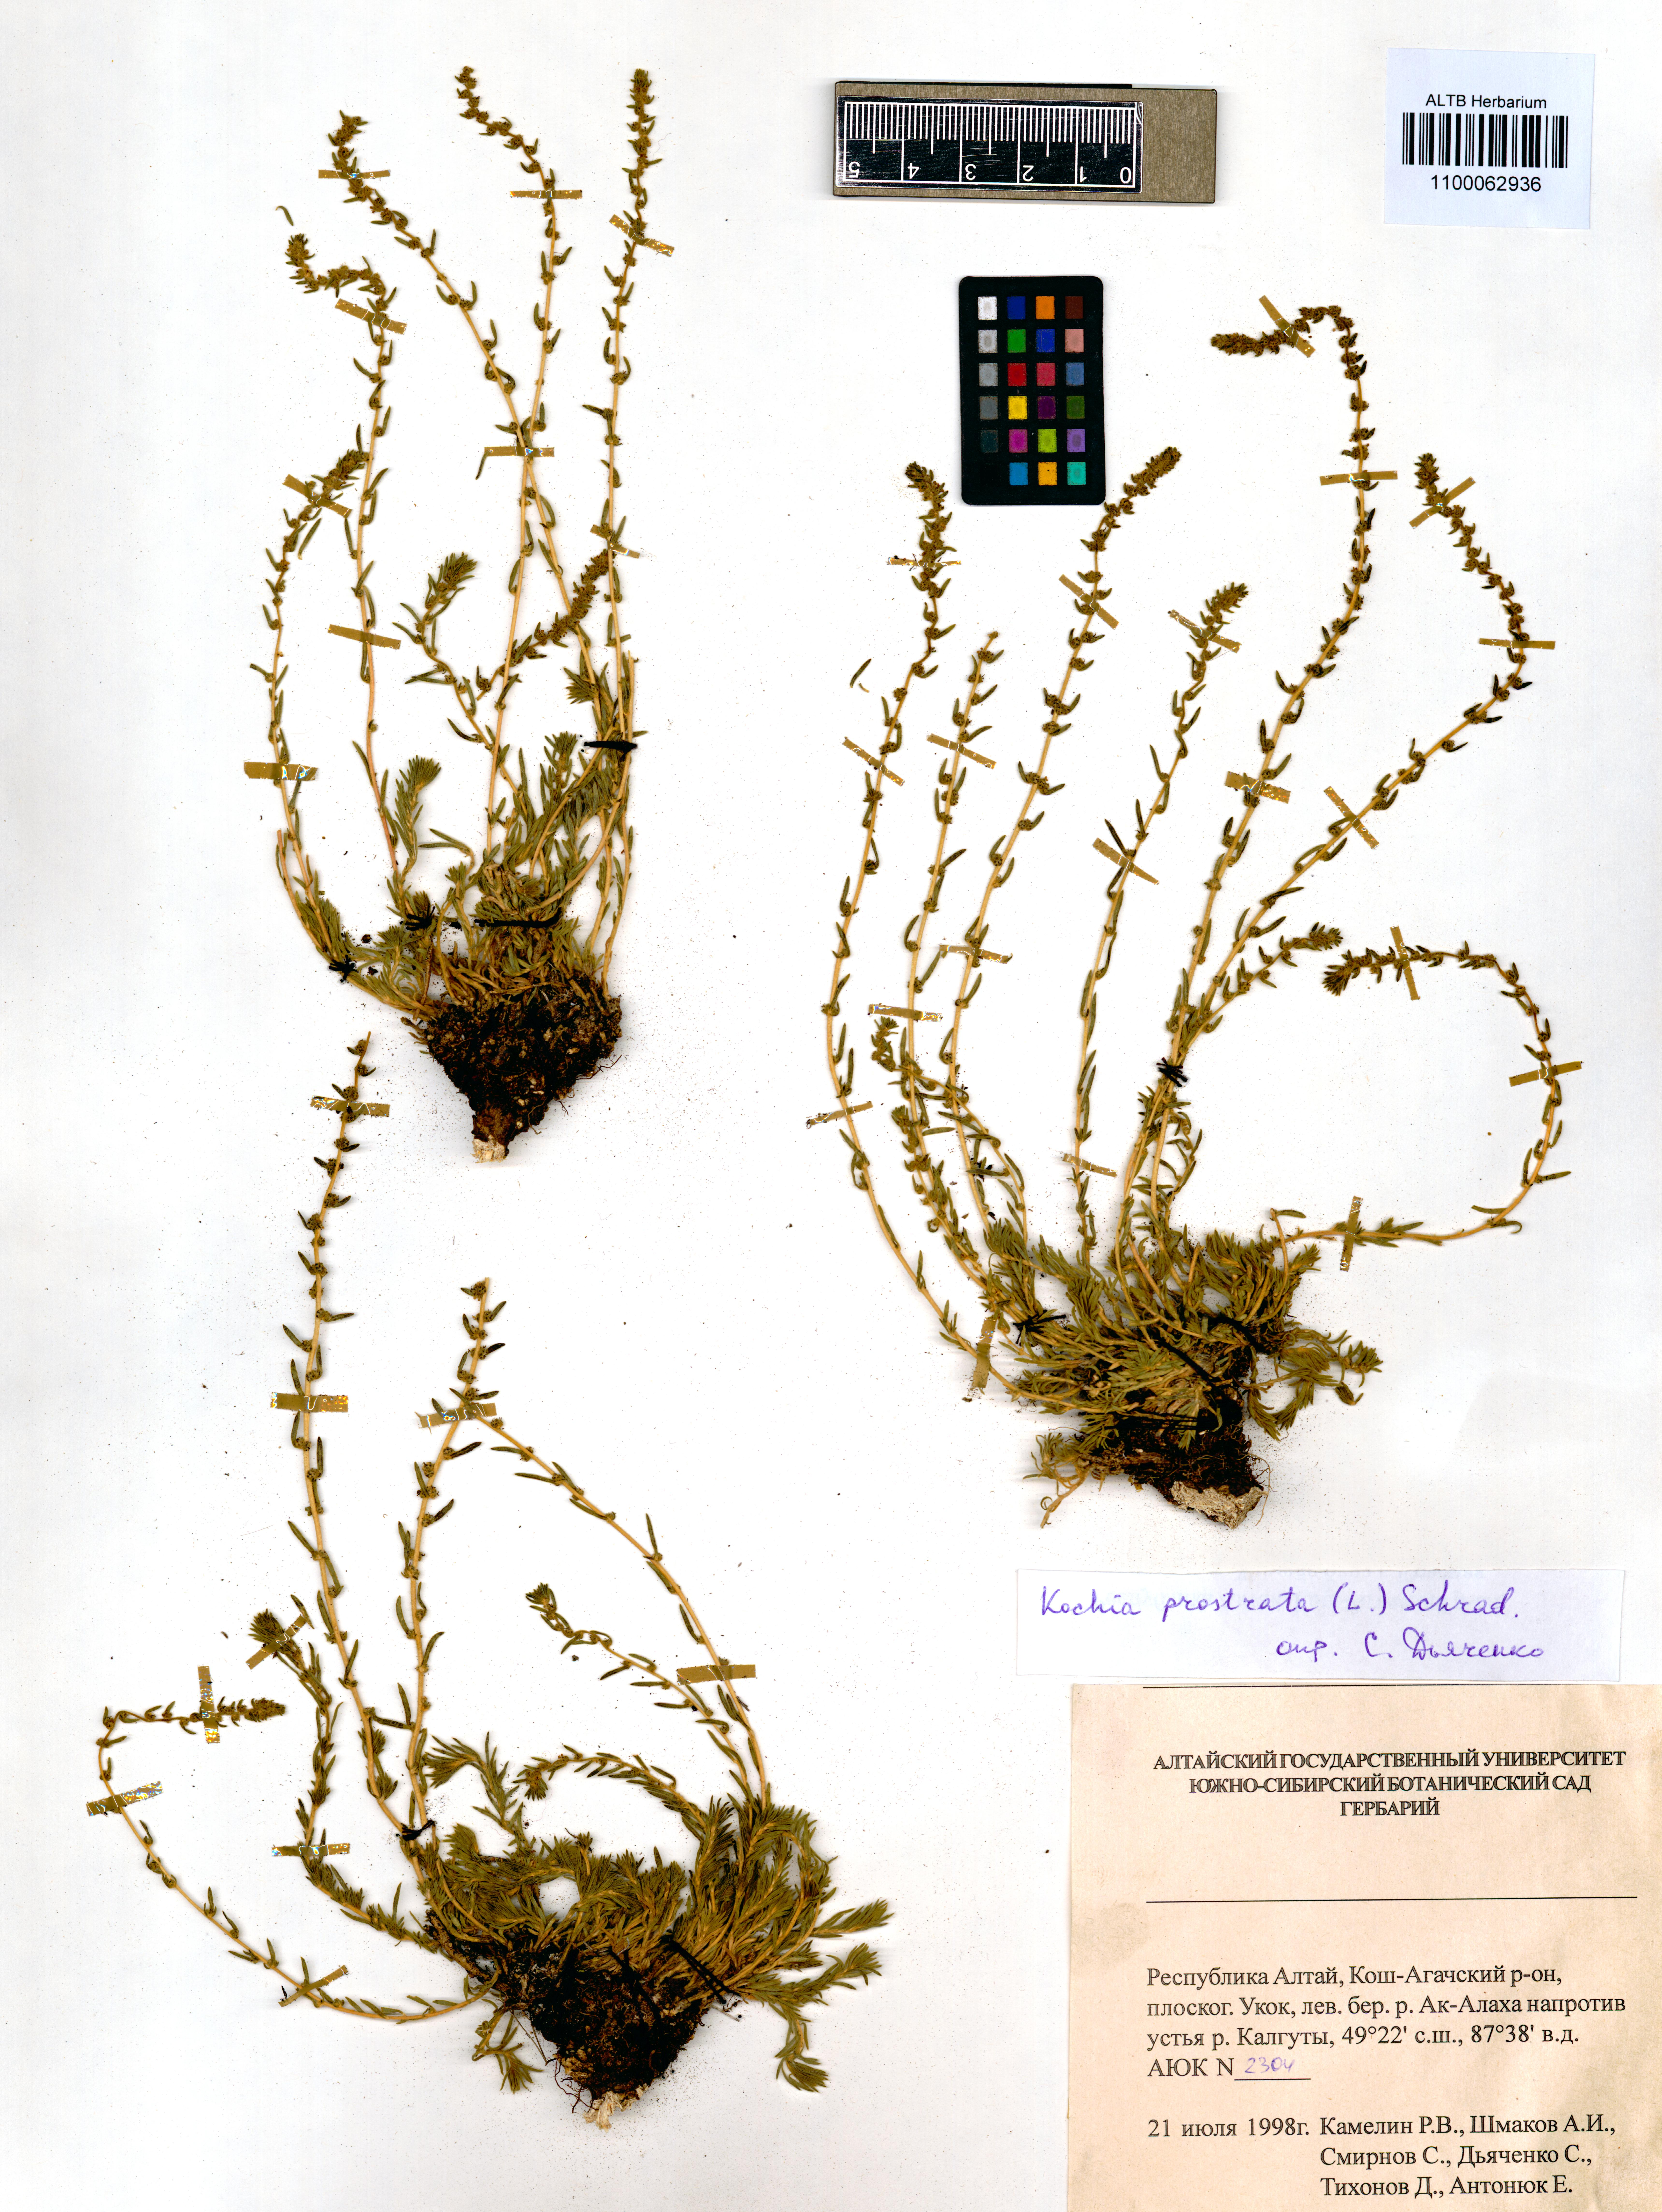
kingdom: Plantae
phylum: Tracheophyta
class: Magnoliopsida
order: Caryophyllales
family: Amaranthaceae
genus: Bassia
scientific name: Bassia prostrata
